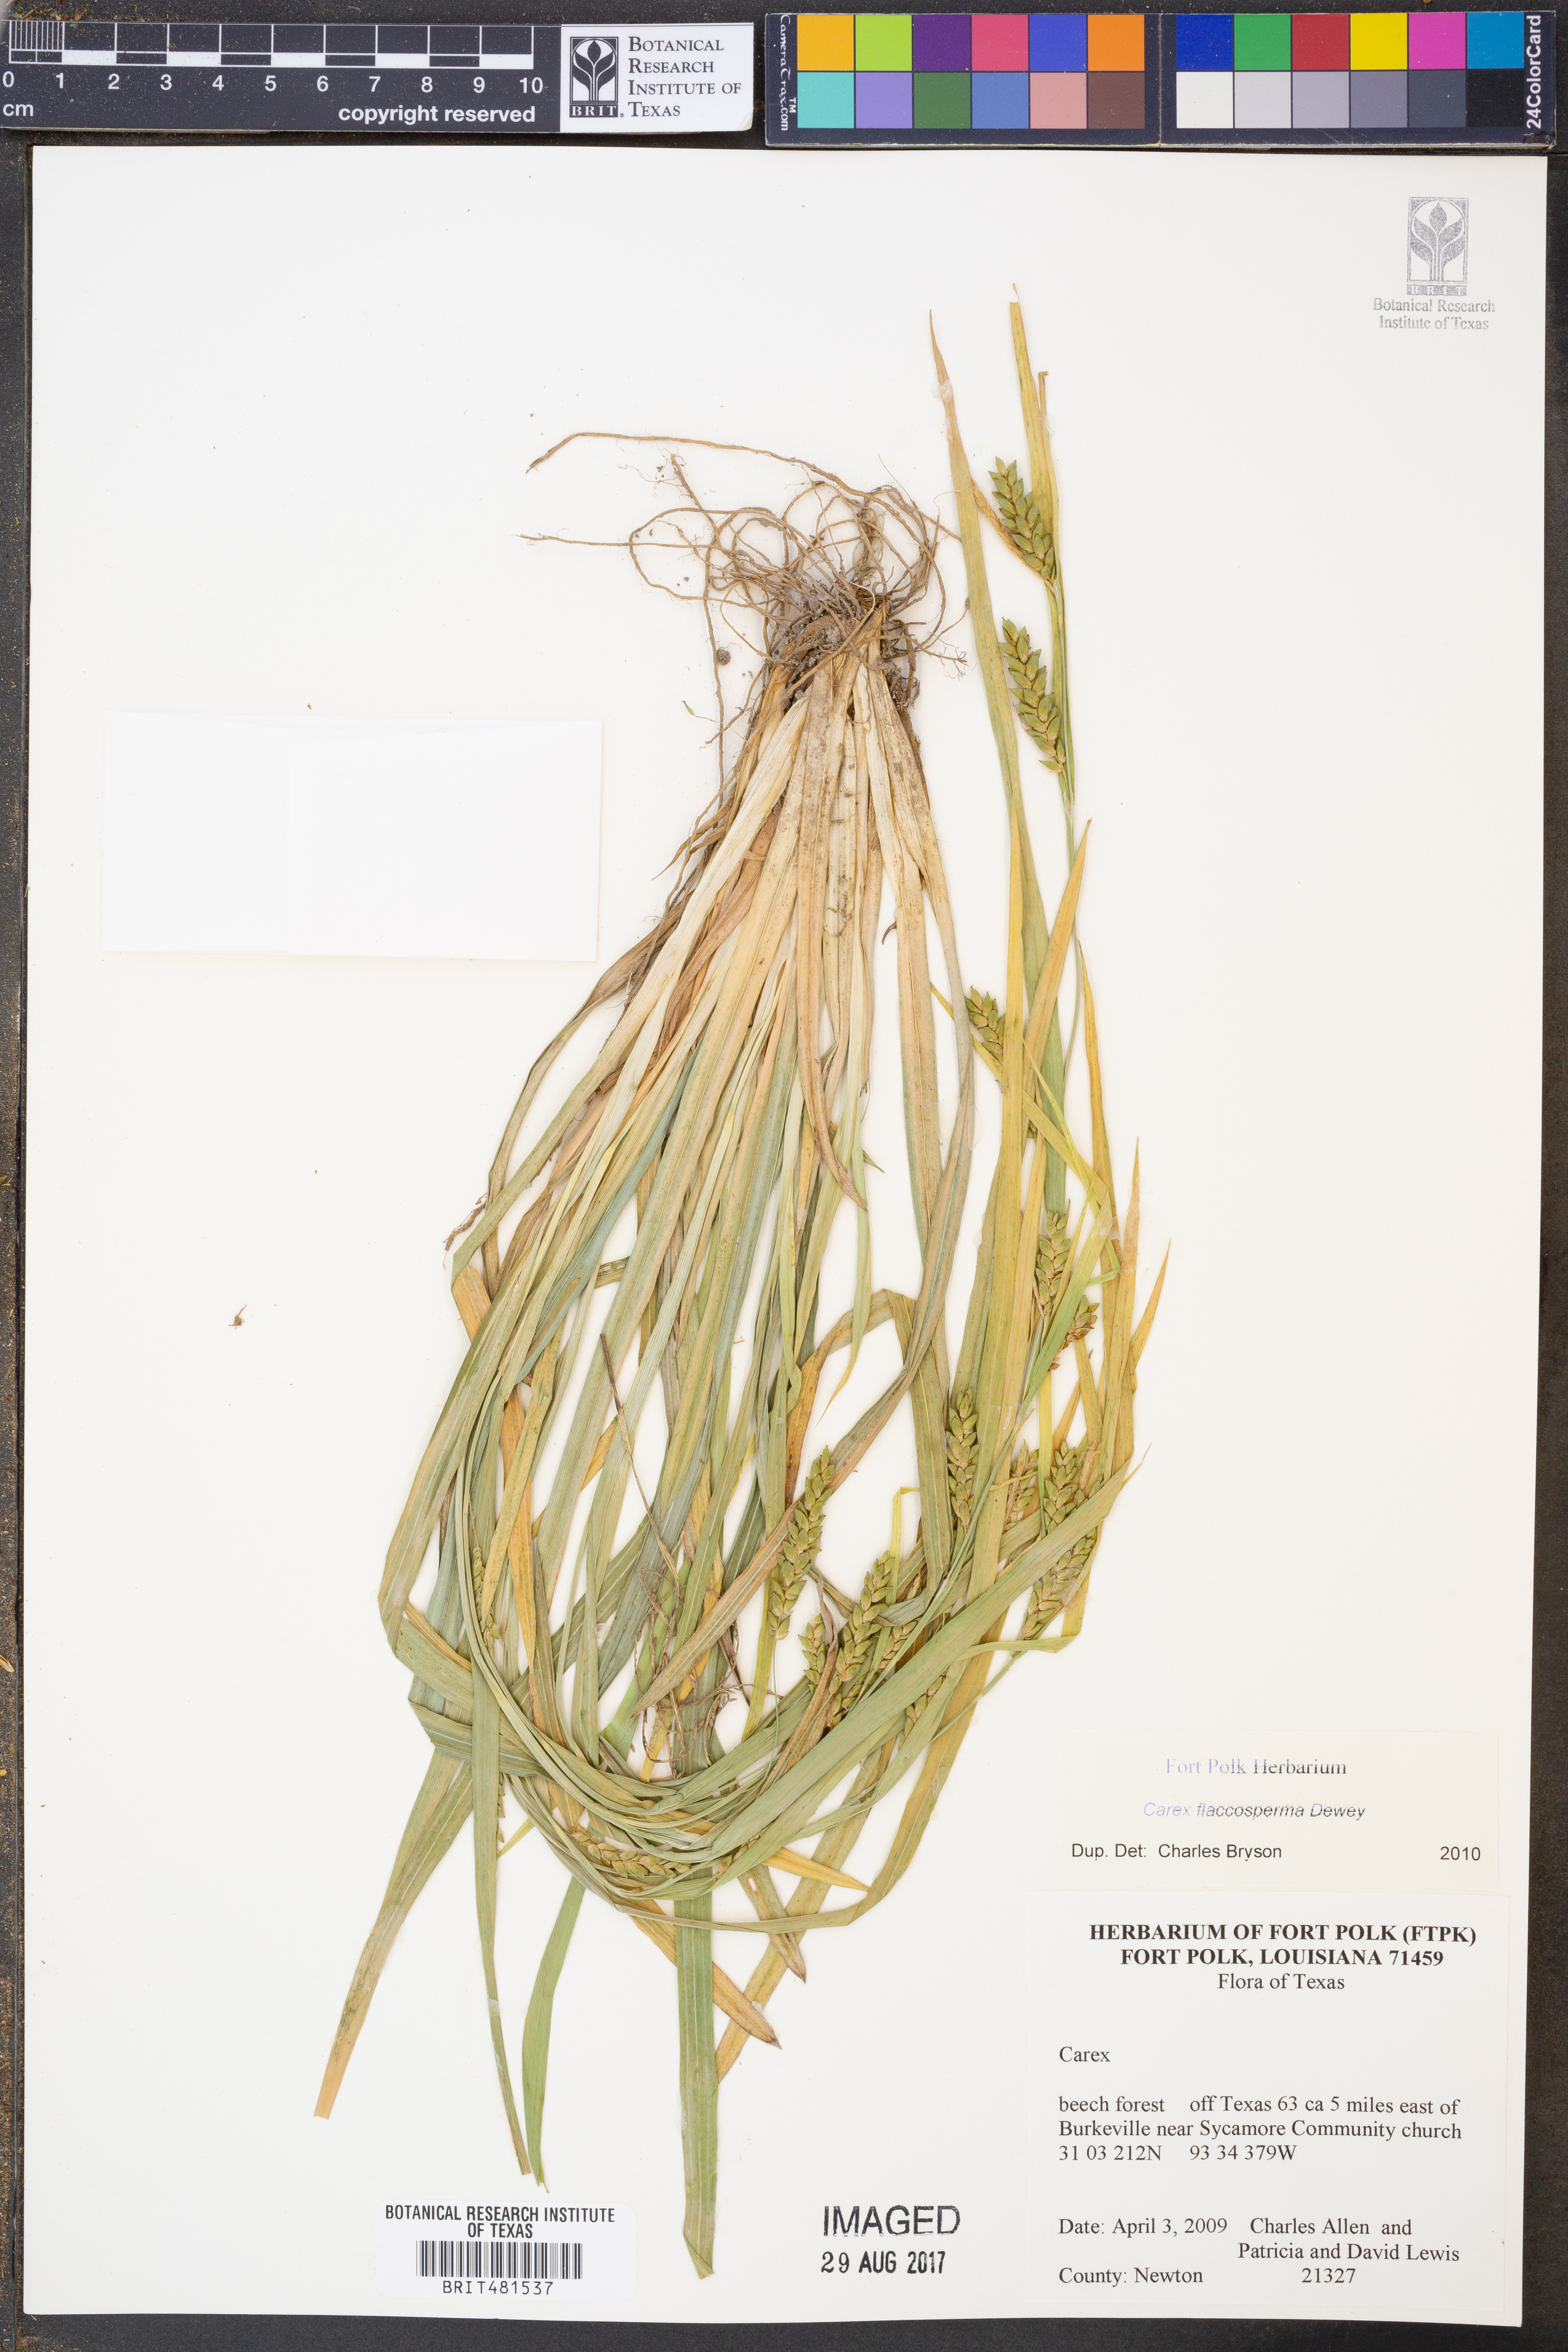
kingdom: Plantae
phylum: Tracheophyta
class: Liliopsida
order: Poales
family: Cyperaceae
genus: Carex
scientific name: Carex flaccosperma
